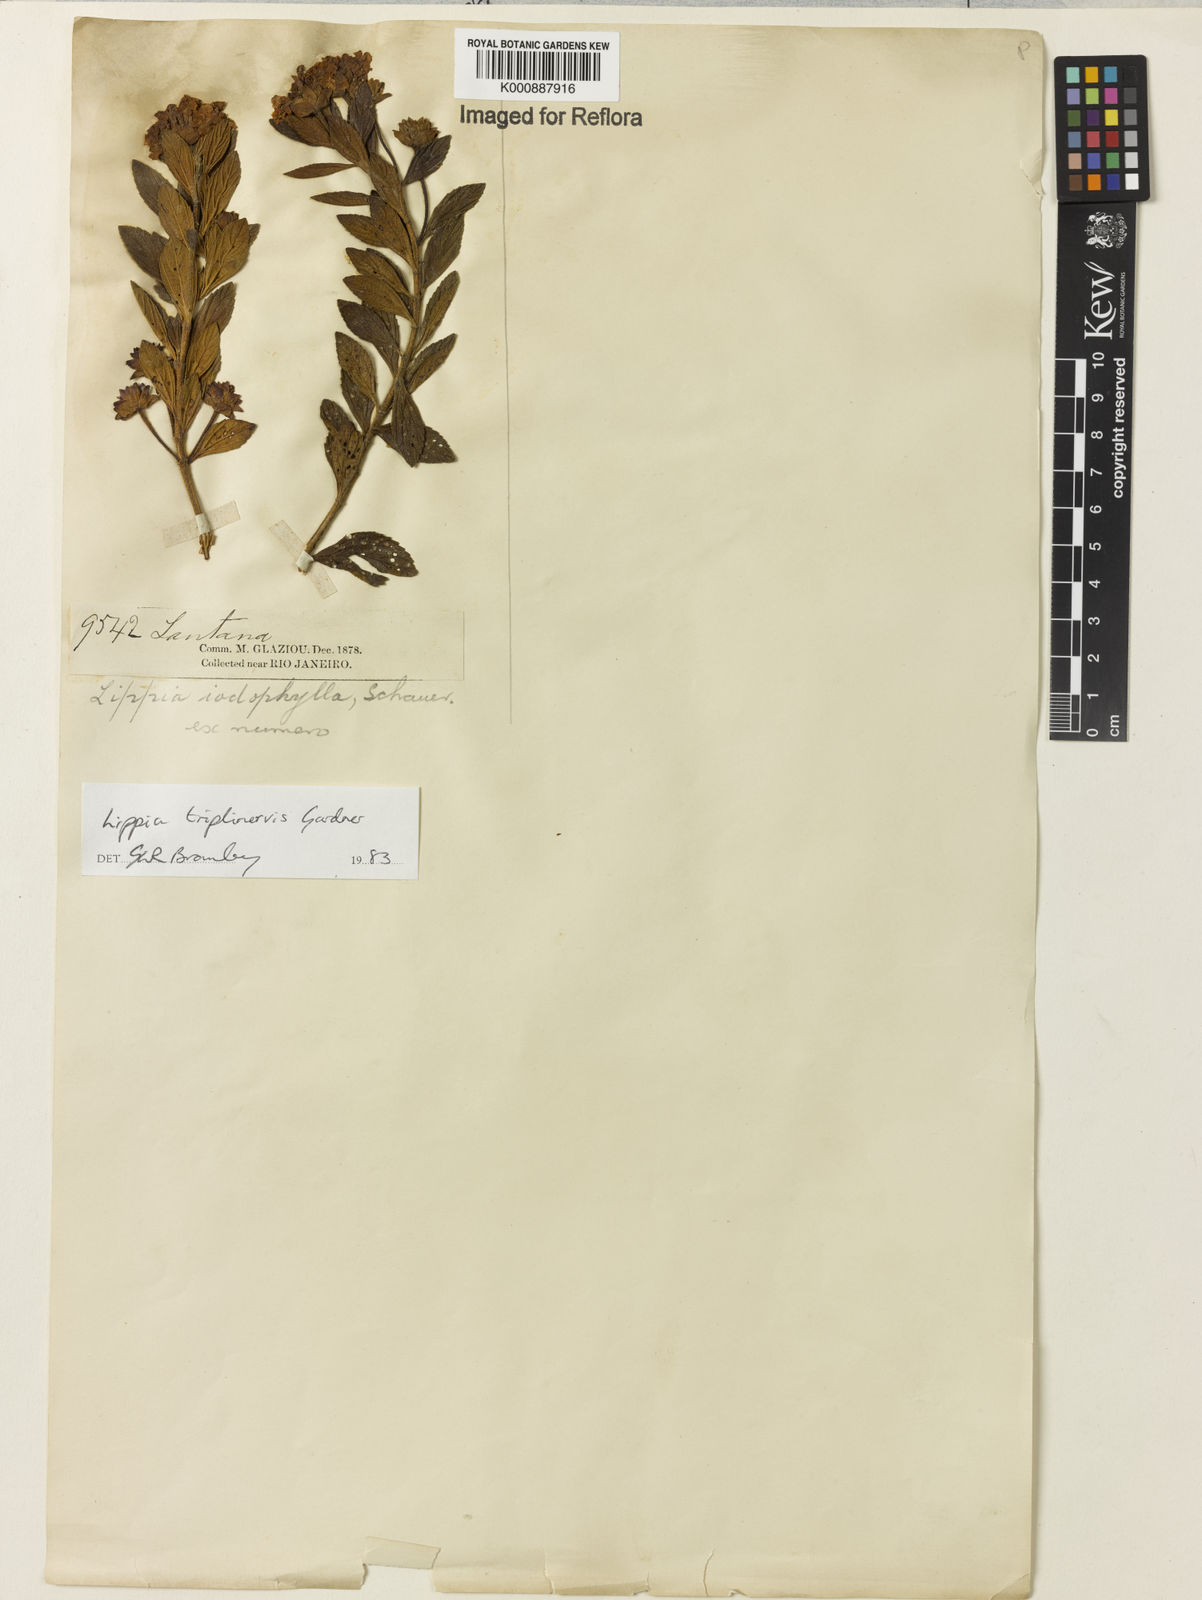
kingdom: Plantae
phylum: Tracheophyta
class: Magnoliopsida
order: Lamiales
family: Verbenaceae
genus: Lippia
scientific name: Lippia triplinervis
